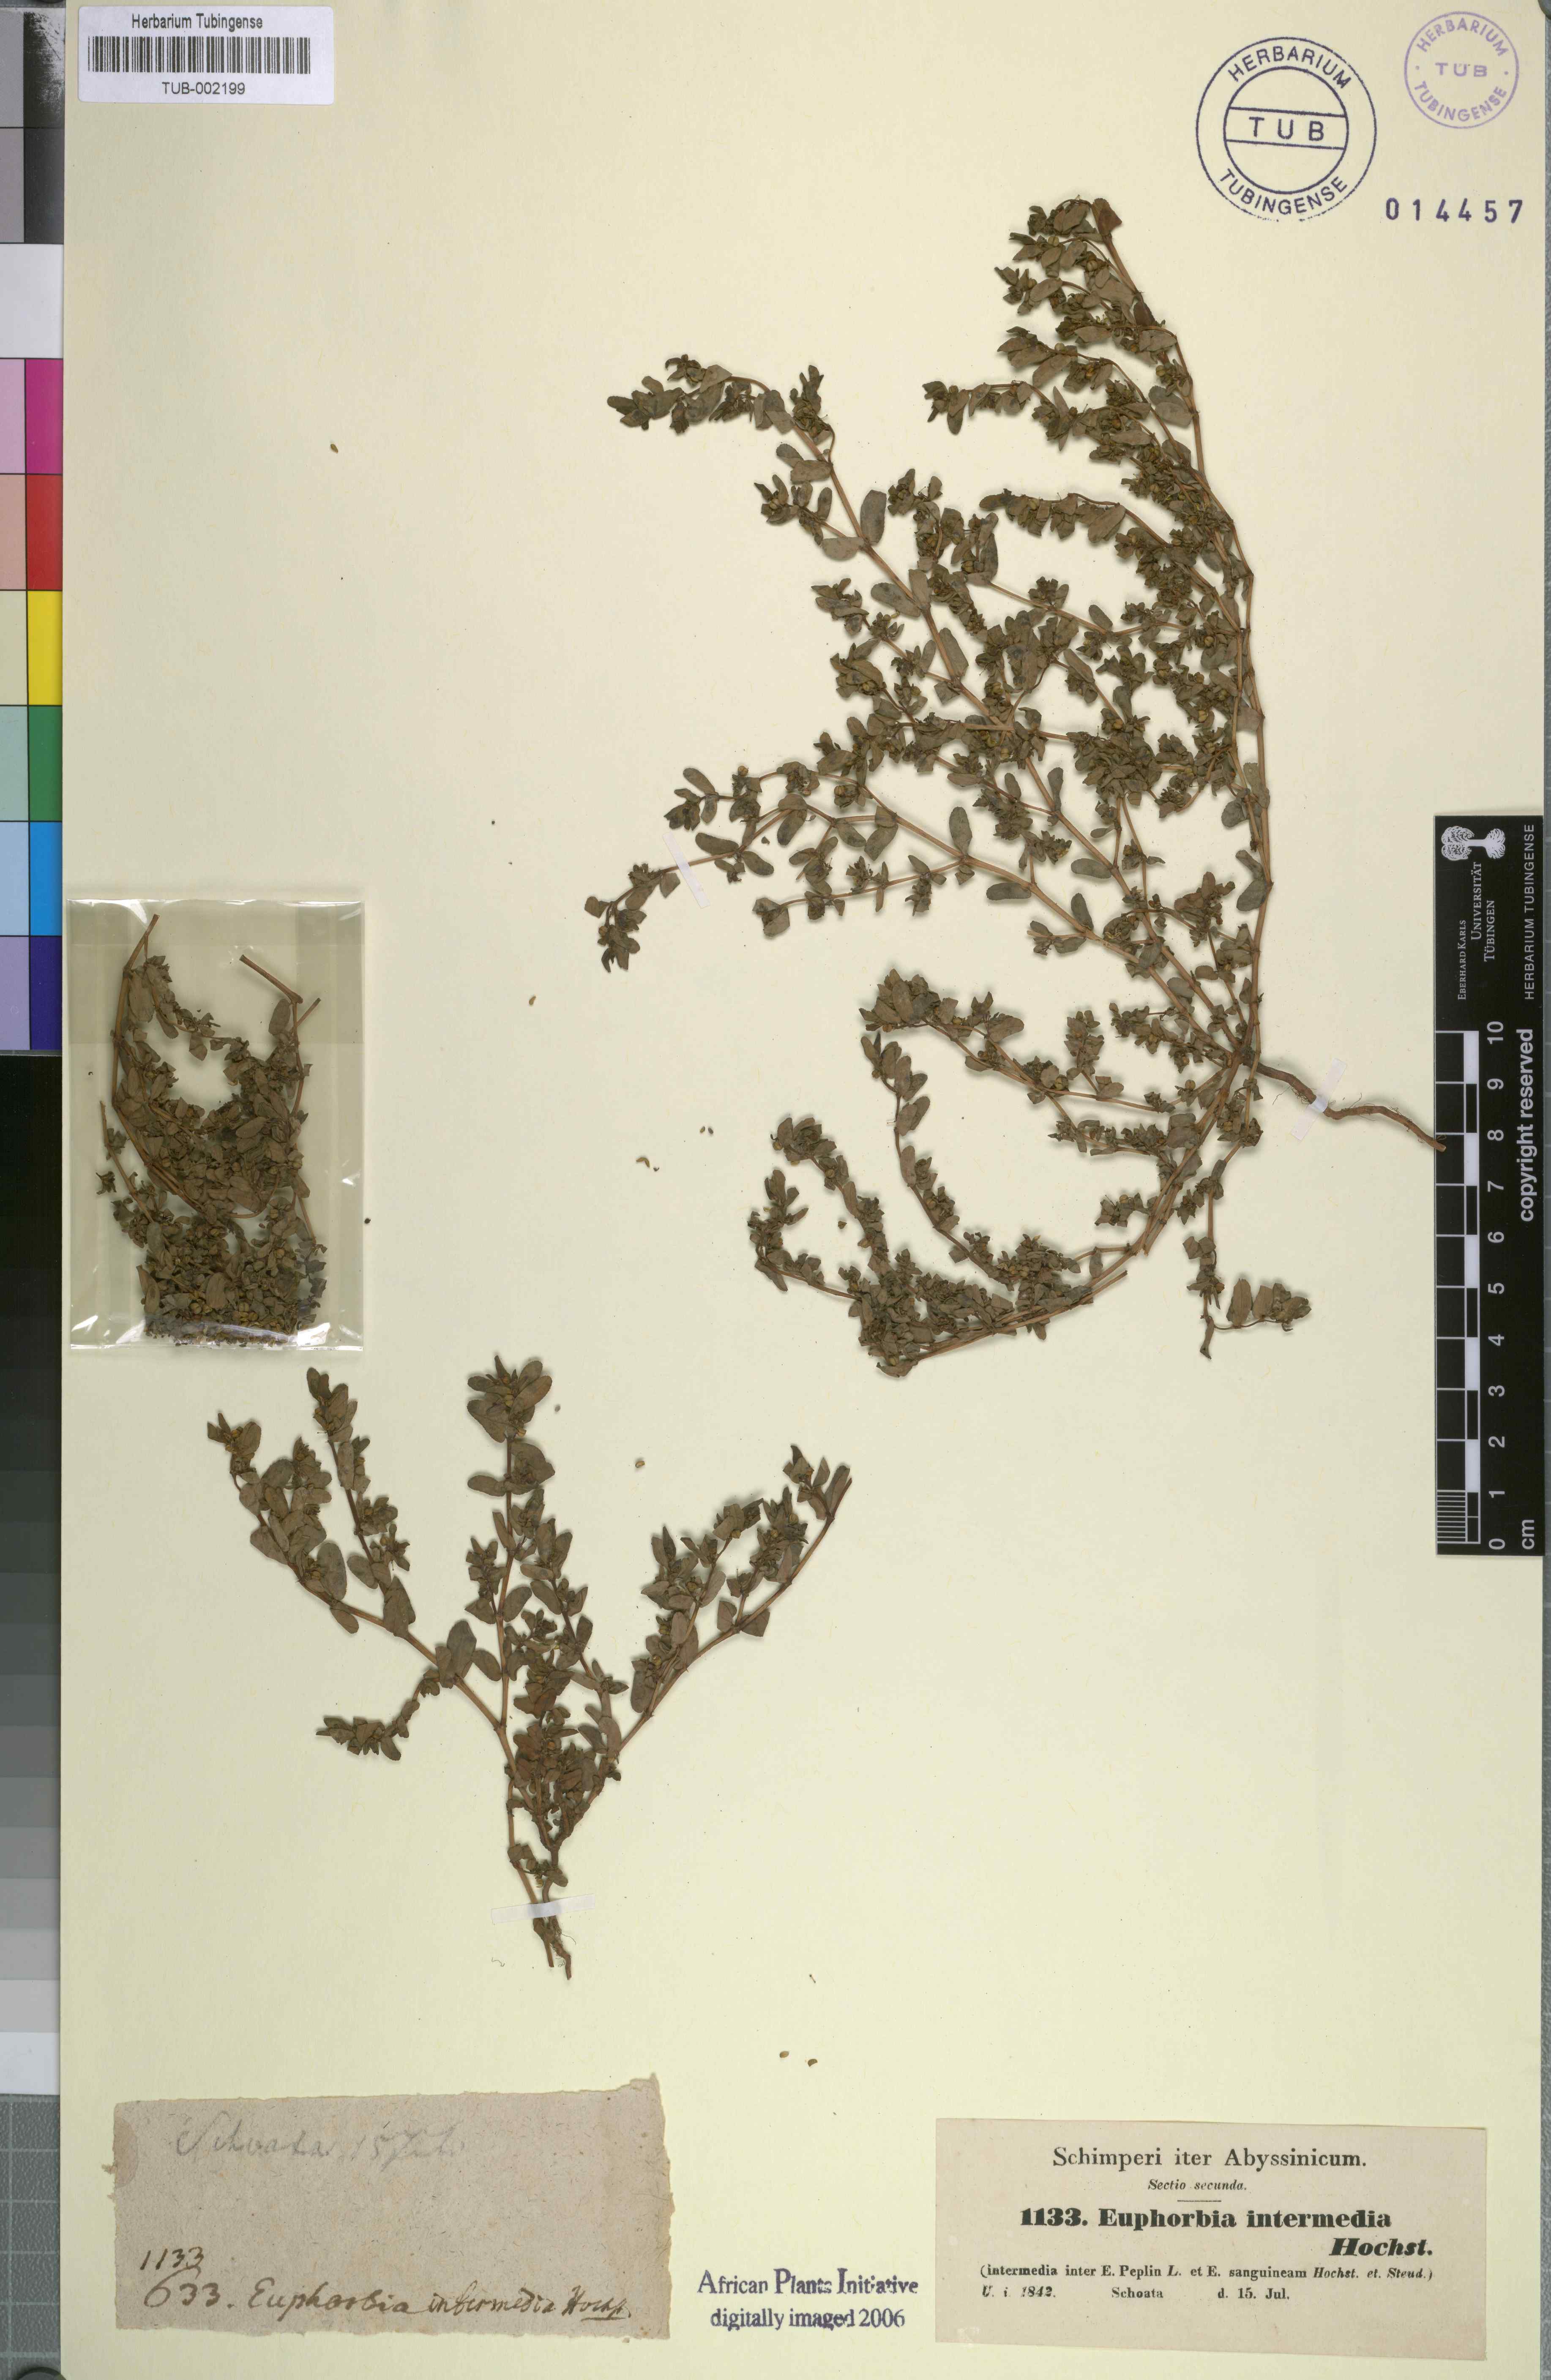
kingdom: Plantae
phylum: Tracheophyta
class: Magnoliopsida
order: Malpighiales
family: Euphorbiaceae
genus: Euphorbia
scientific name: Euphorbia inaequilatera
